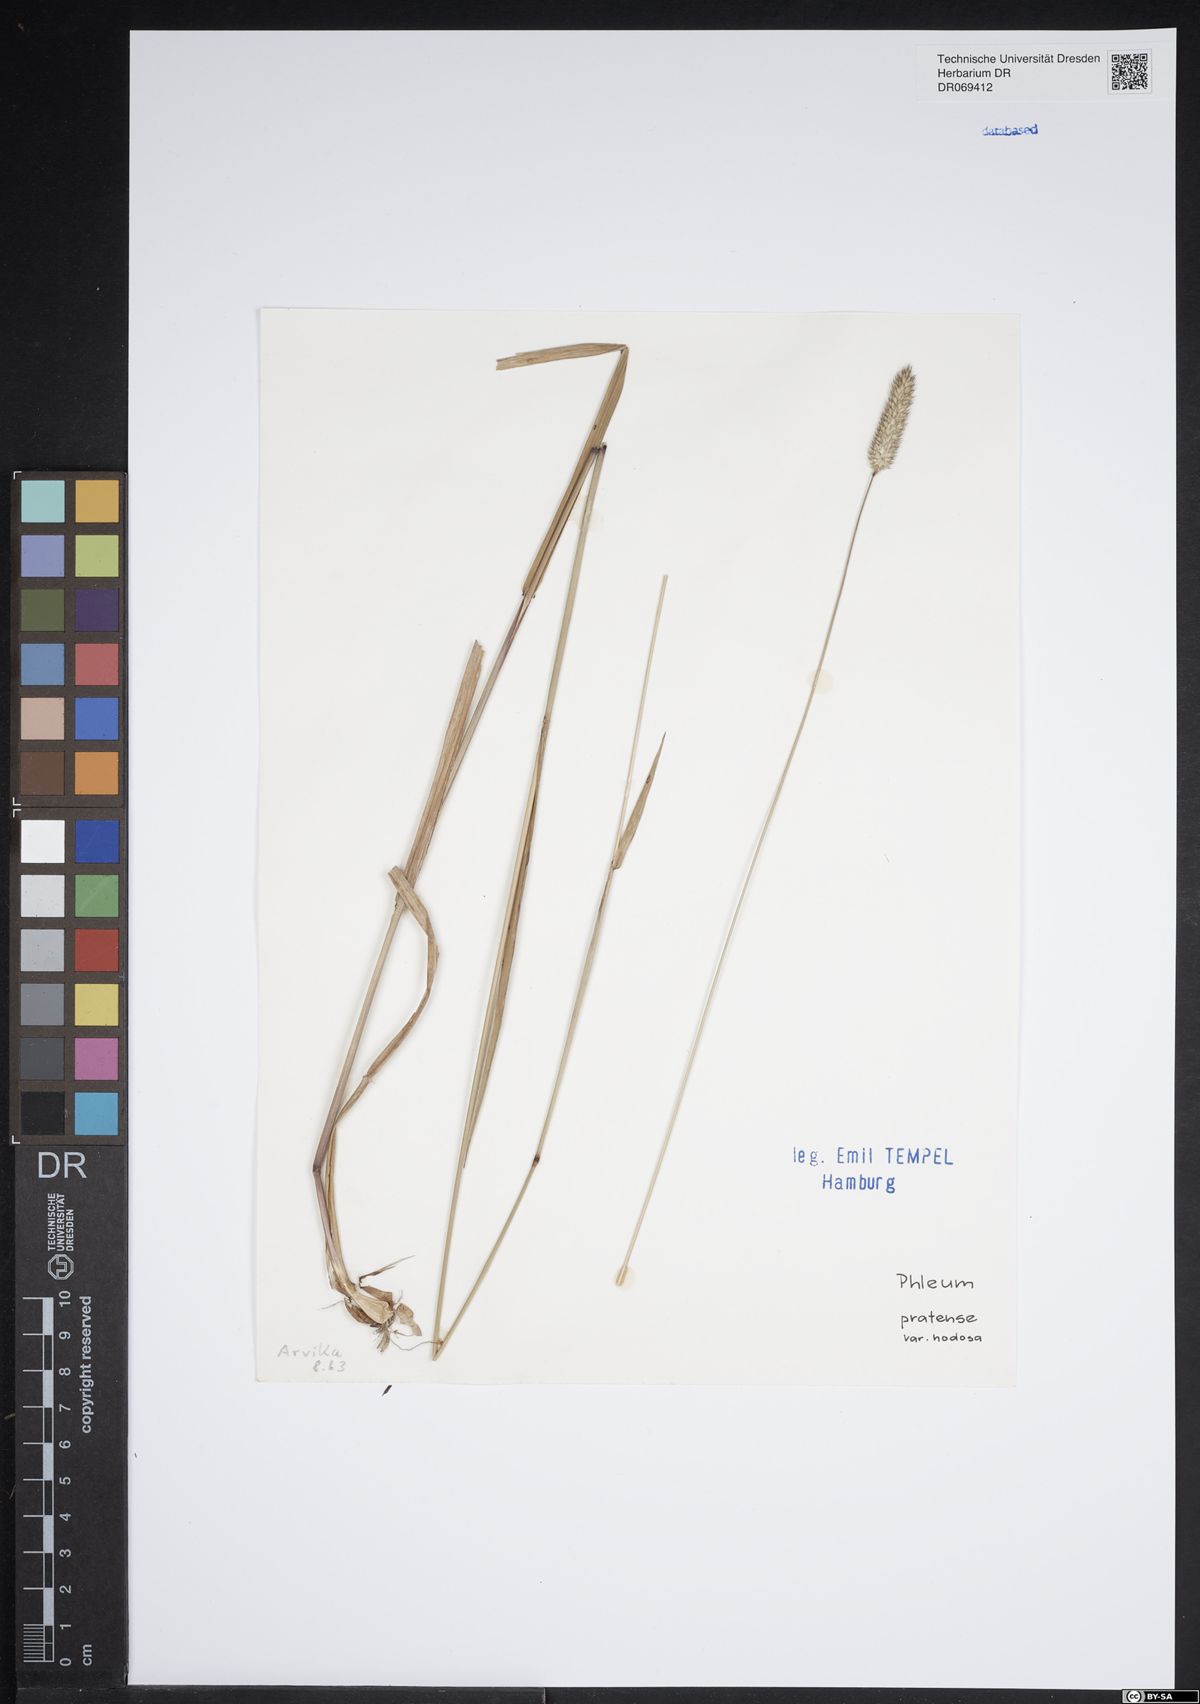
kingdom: Plantae
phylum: Tracheophyta
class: Liliopsida
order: Poales
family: Poaceae
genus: Phleum
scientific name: Phleum pratense
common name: Timothy grass
